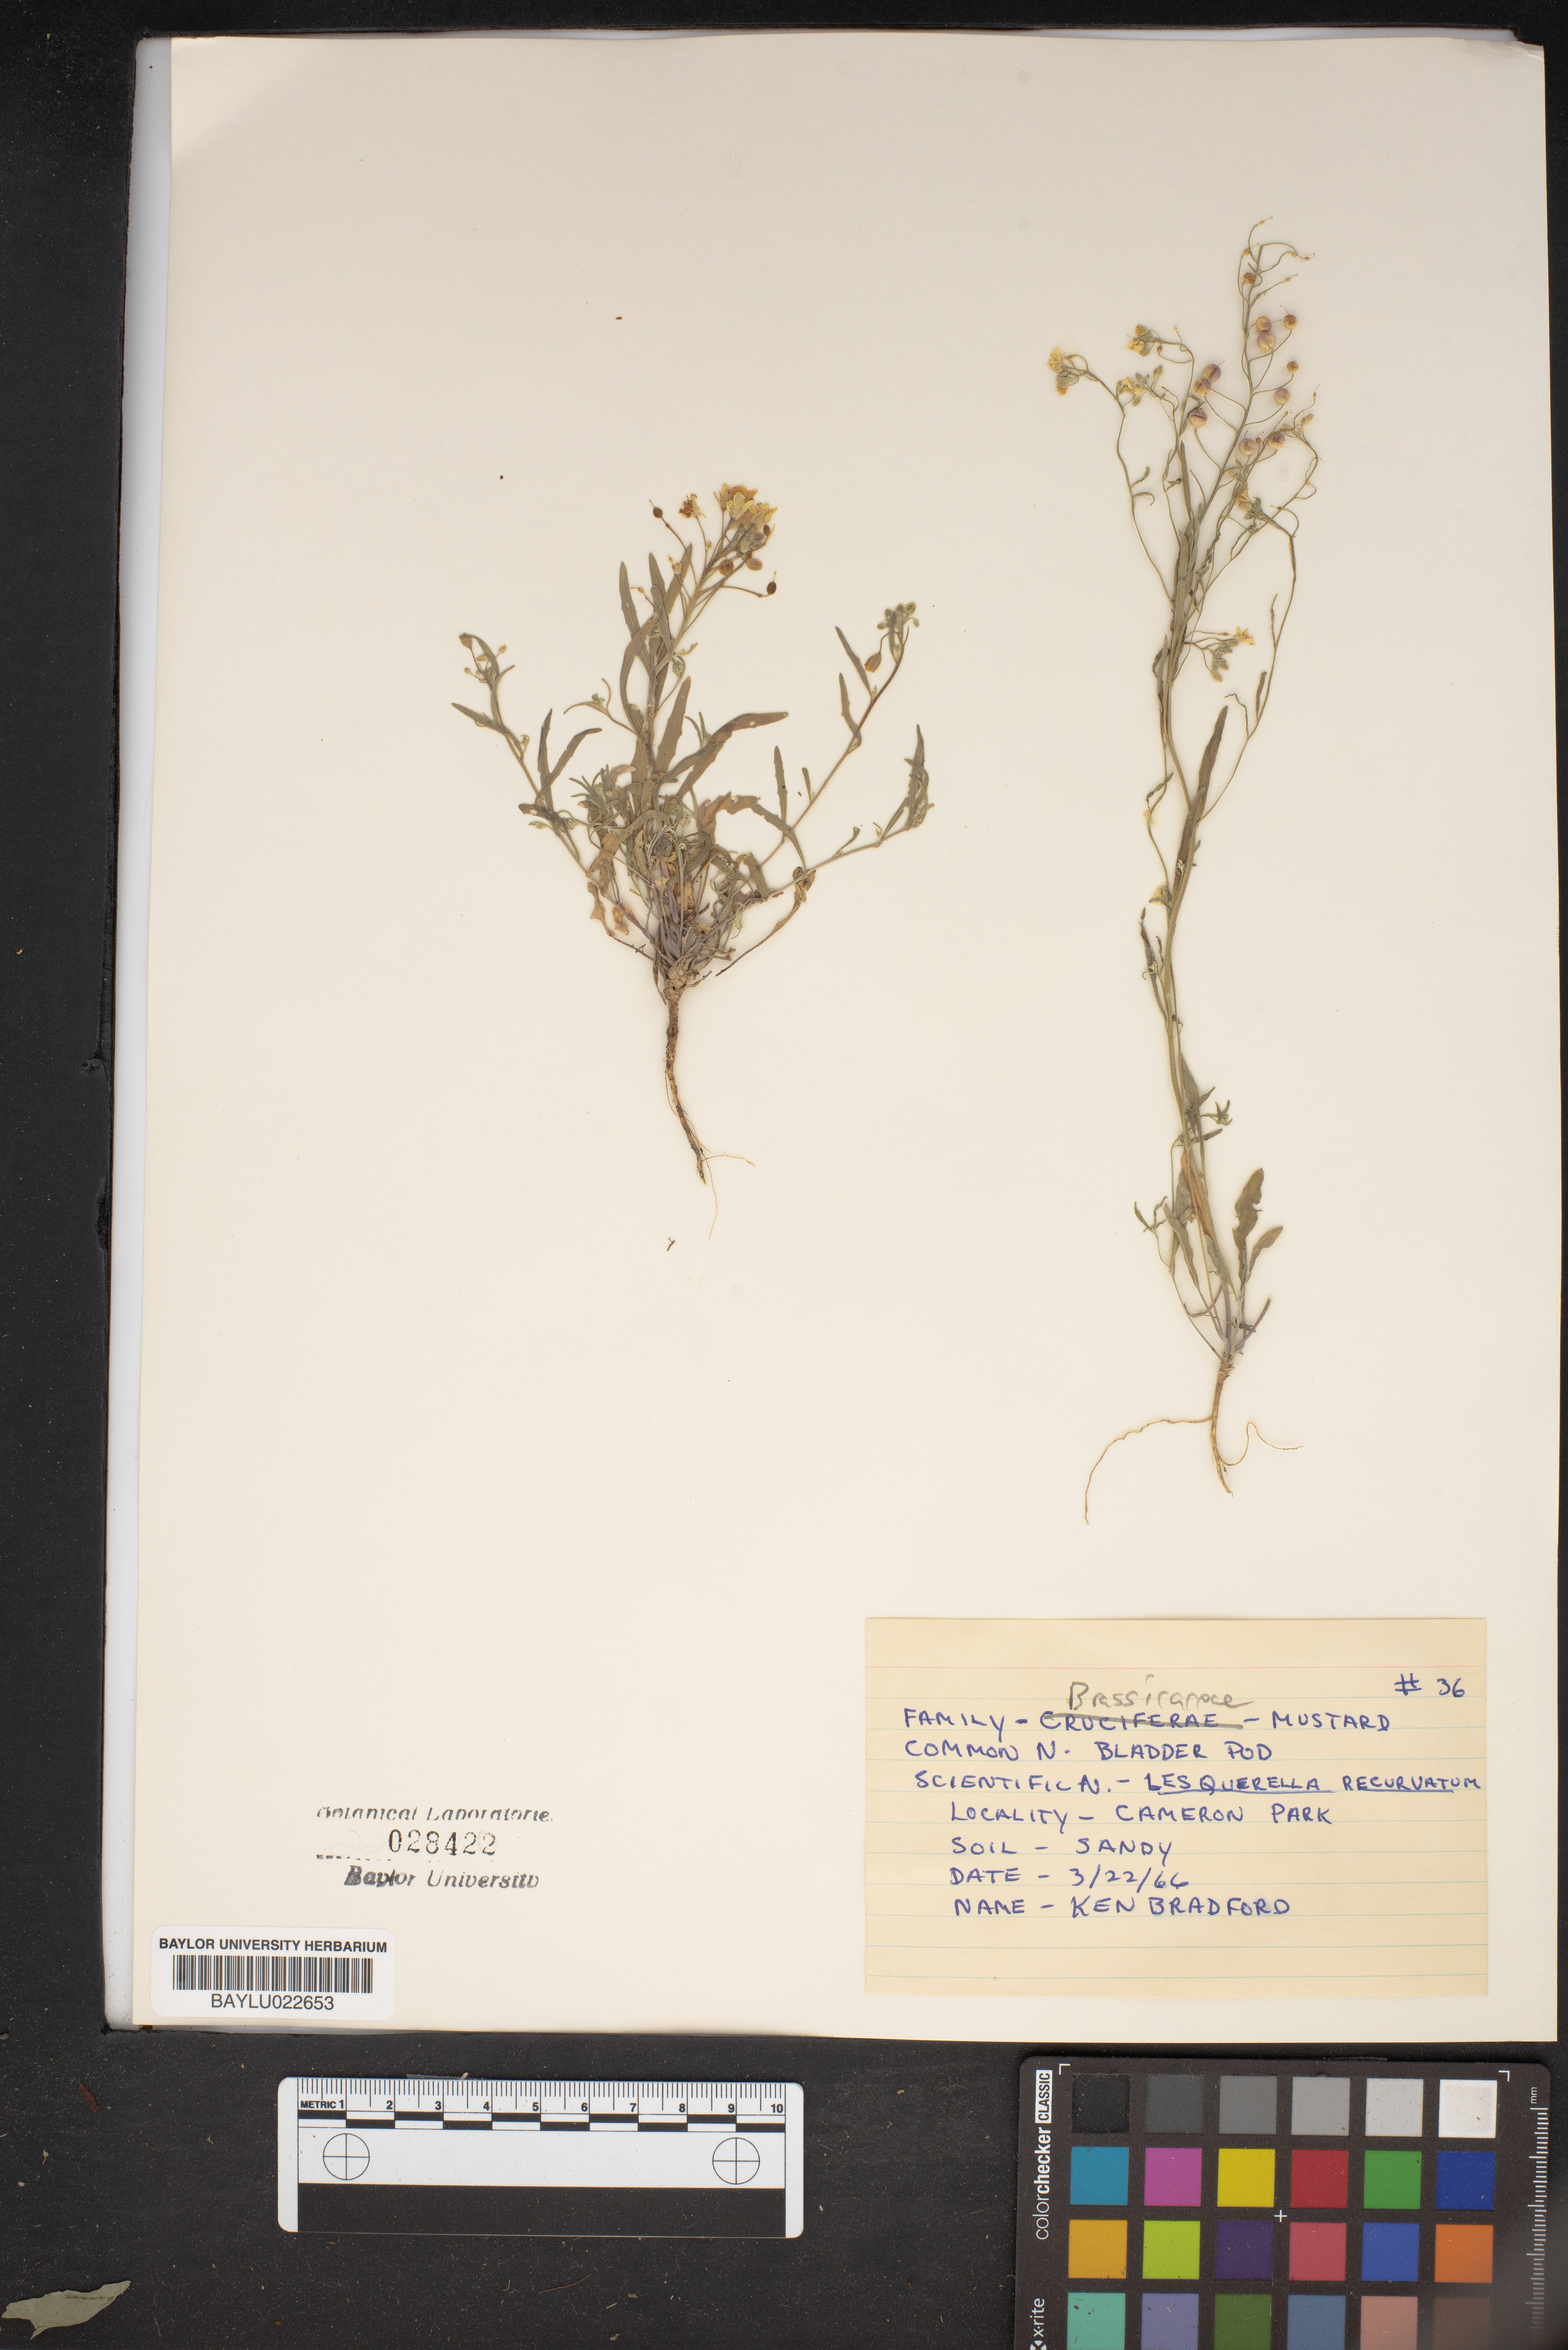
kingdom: Plantae
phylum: Tracheophyta
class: Magnoliopsida
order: Brassicales
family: Brassicaceae
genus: Physaria
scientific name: Physaria recurvata
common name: Gaslight bladderpod
